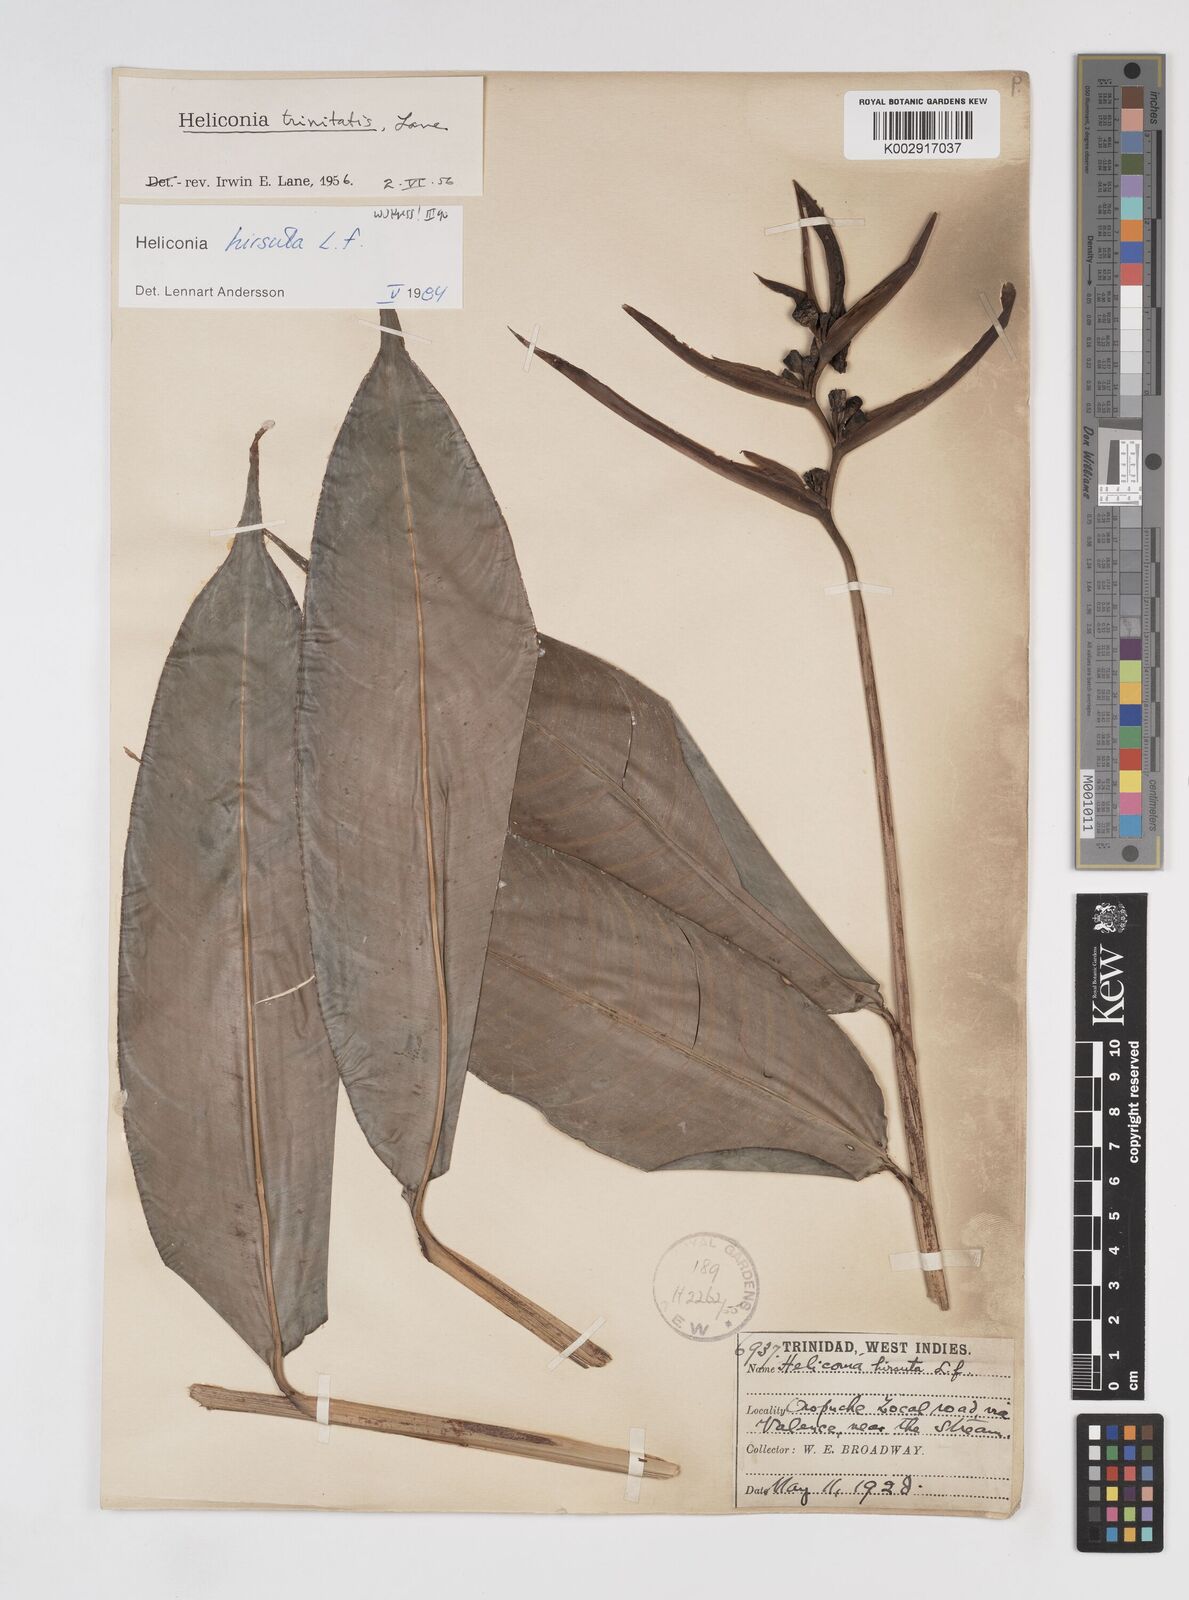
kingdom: Plantae
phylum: Tracheophyta
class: Liliopsida
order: Zingiberales
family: Heliconiaceae
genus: Heliconia
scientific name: Heliconia hirsuta
